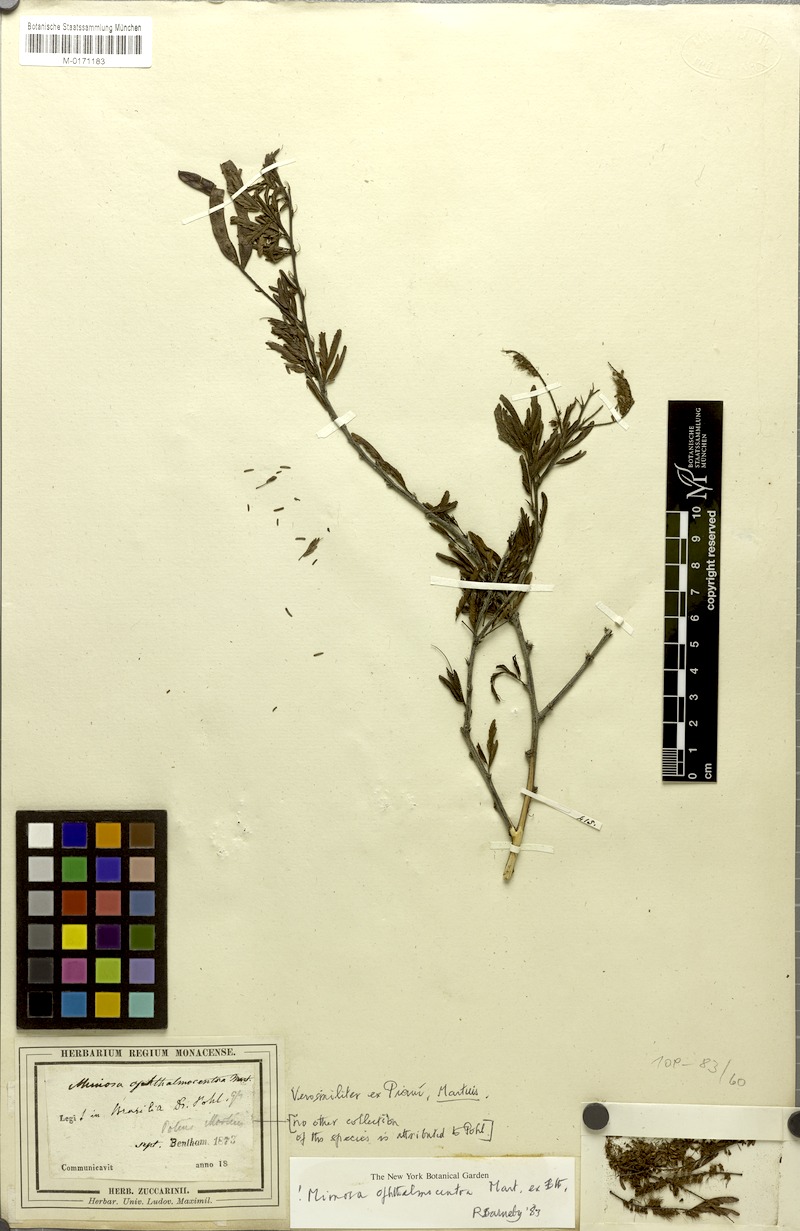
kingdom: Plantae
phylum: Tracheophyta
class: Magnoliopsida
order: Fabales
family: Fabaceae
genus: Mimosa
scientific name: Mimosa ophthalmocentra
